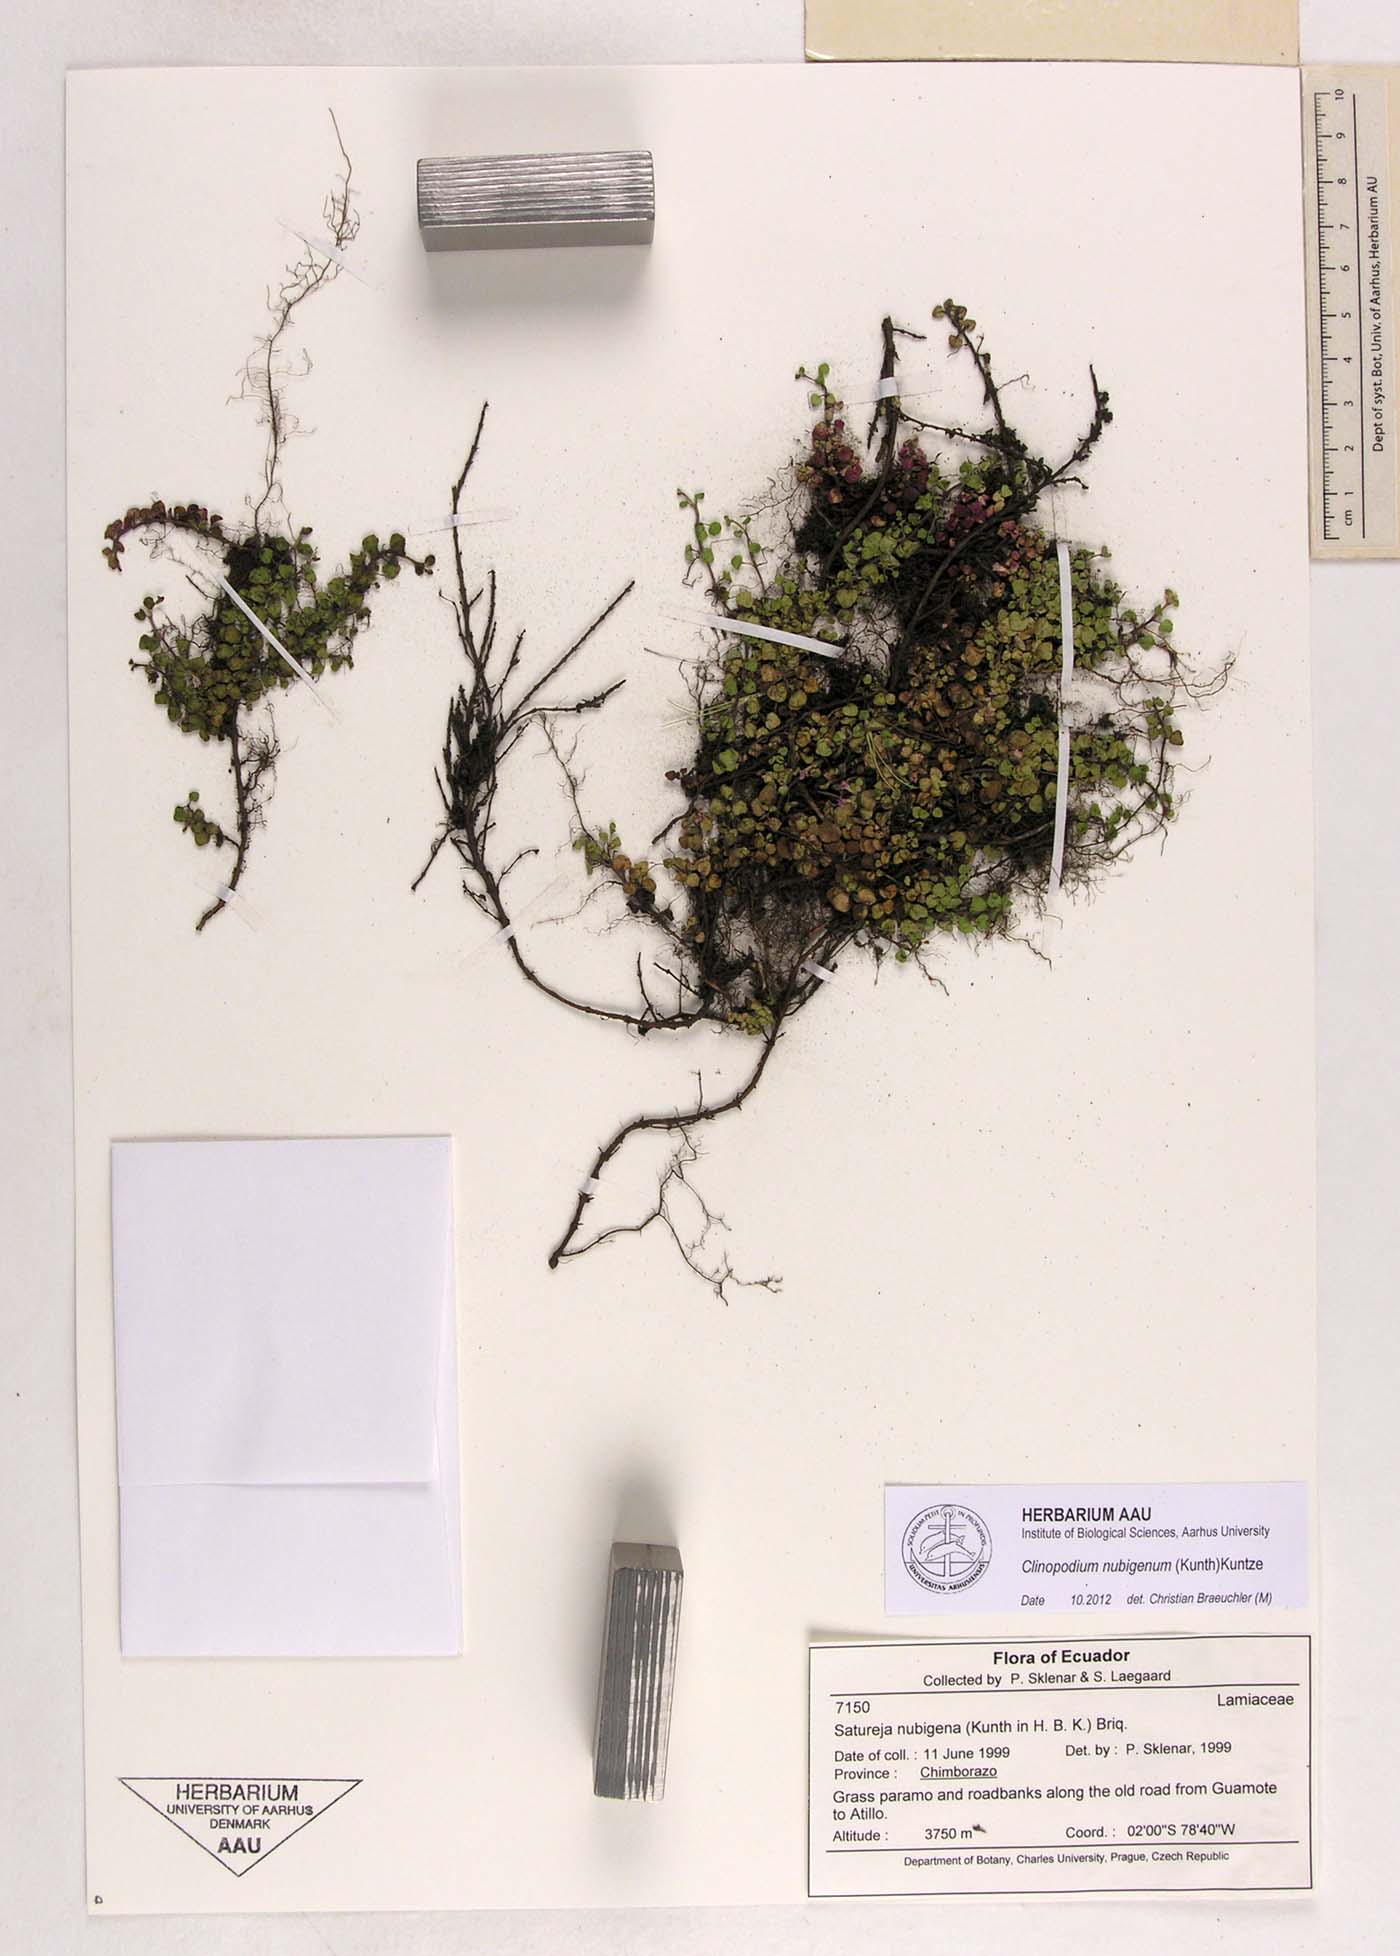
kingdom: Plantae
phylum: Tracheophyta
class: Magnoliopsida
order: Lamiales
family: Lamiaceae
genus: Clinopodium
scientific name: Clinopodium nubigenum
